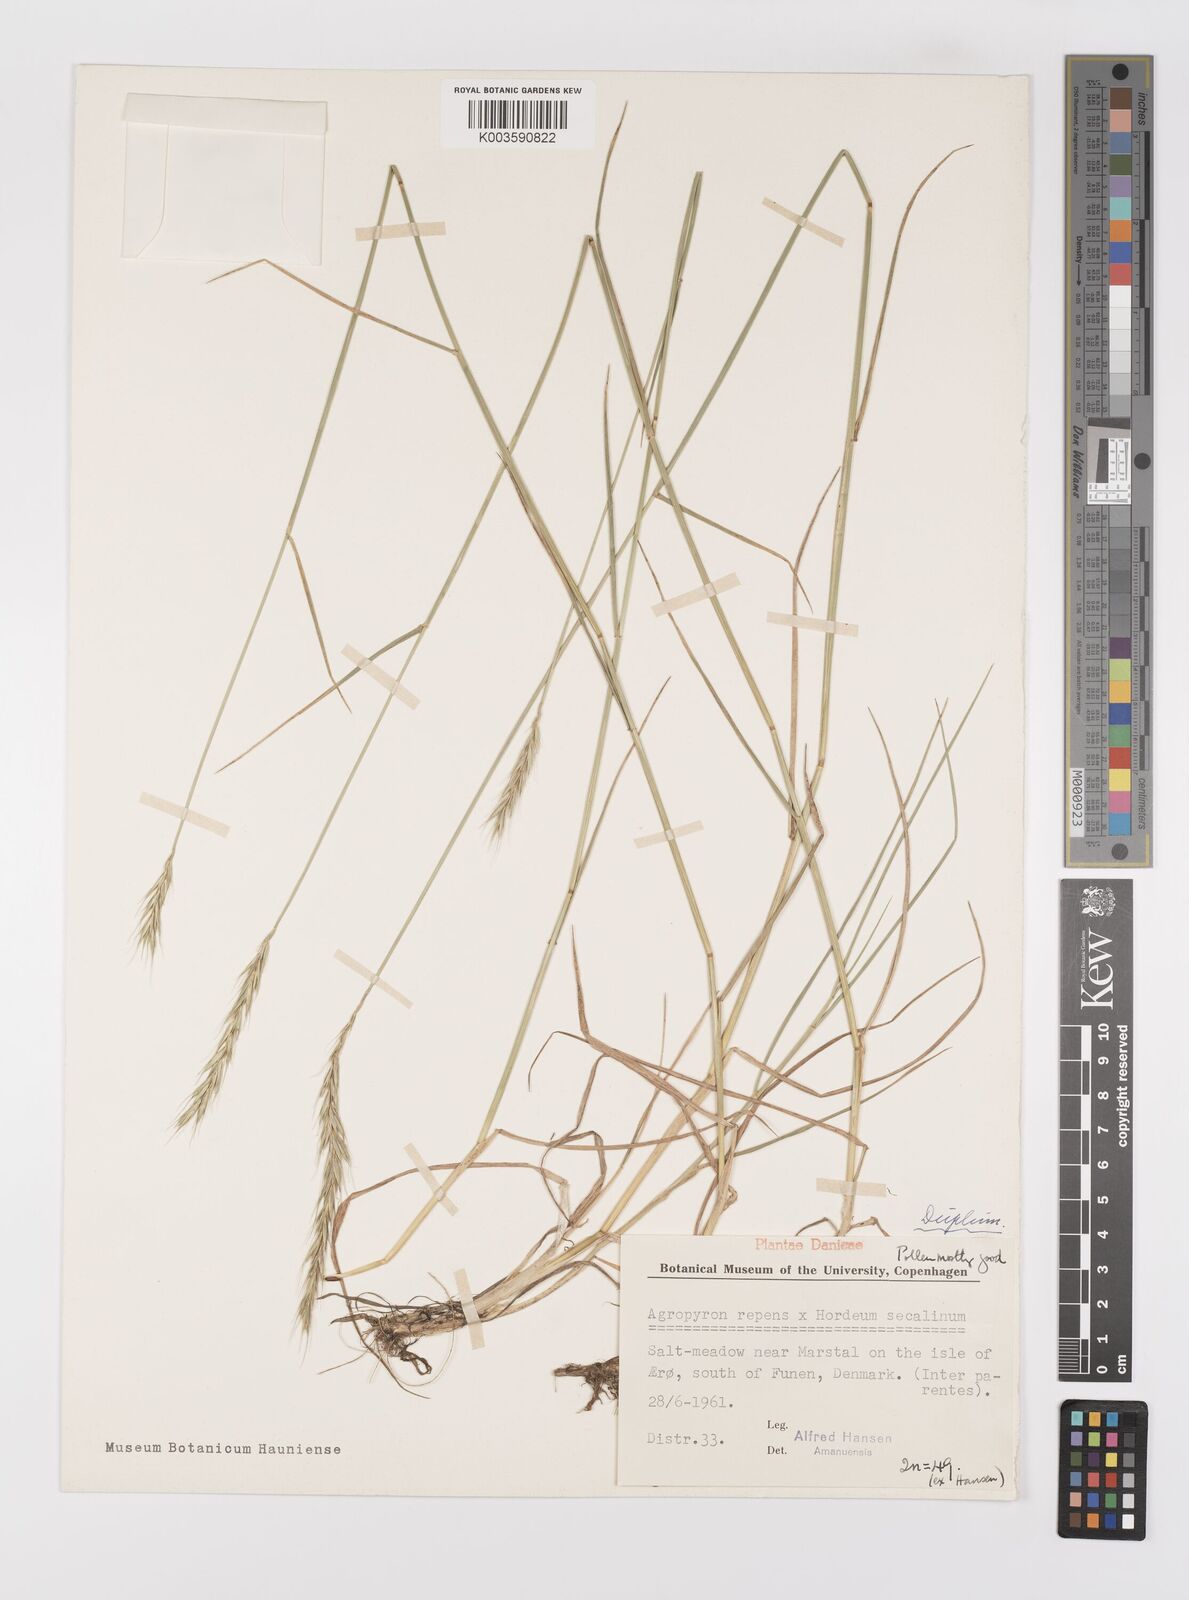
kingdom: Plantae
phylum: Tracheophyta
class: Liliopsida
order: Poales
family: Poaceae
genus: Elyhordeum
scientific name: Elyhordeum langei
